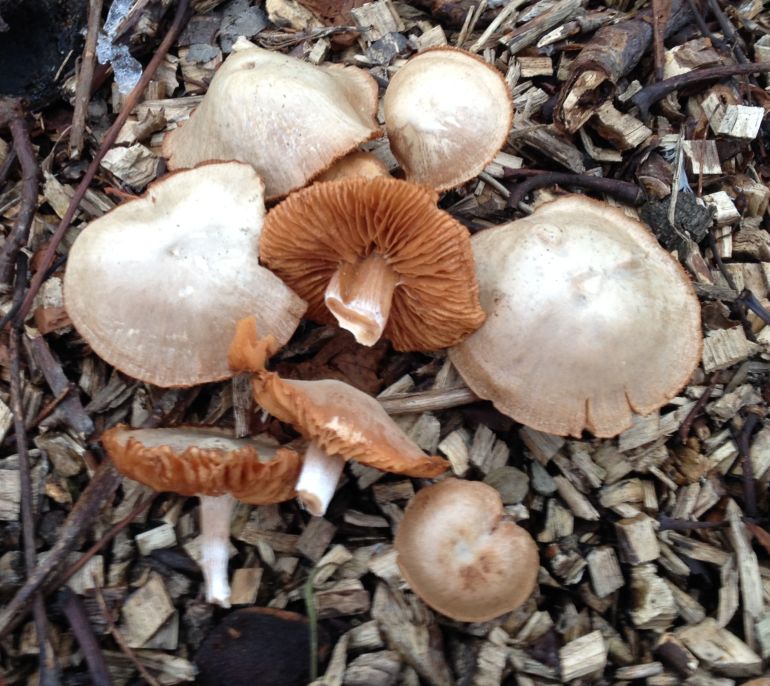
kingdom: Fungi
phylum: Basidiomycota
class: Agaricomycetes
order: Agaricales
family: Tubariaceae
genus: Tubaria
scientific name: Tubaria furfuracea
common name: kliddet fnughat
